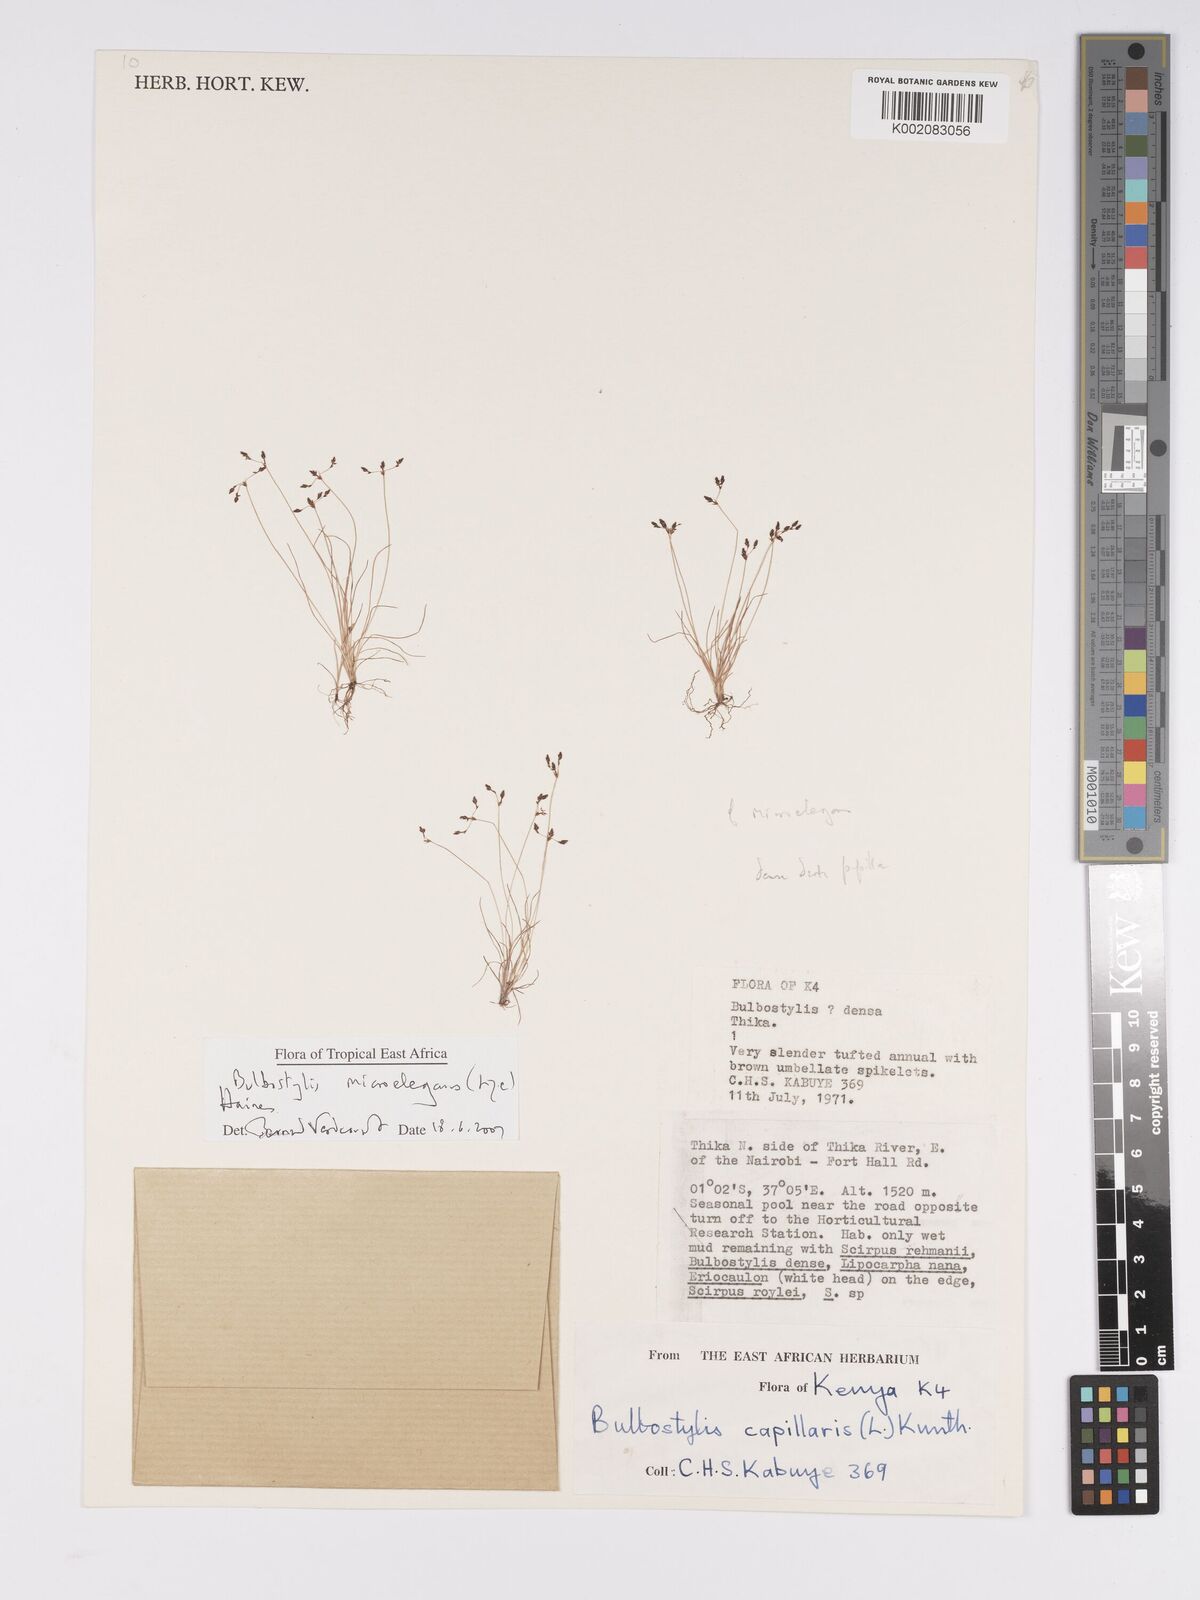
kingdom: Plantae
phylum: Tracheophyta
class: Liliopsida
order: Poales
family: Cyperaceae
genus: Bulbostylis
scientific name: Bulbostylis microelegans
